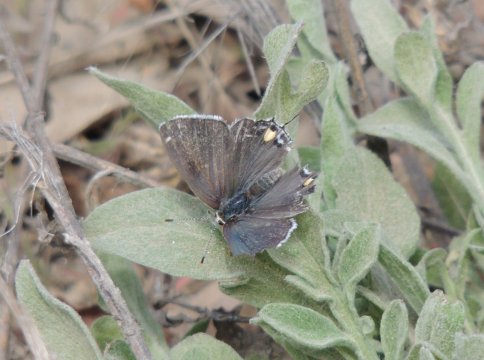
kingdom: Animalia
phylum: Arthropoda
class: Insecta
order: Lepidoptera
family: Lycaenidae
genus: Strymon
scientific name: Strymon melinus
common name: Gray Hairstreak
